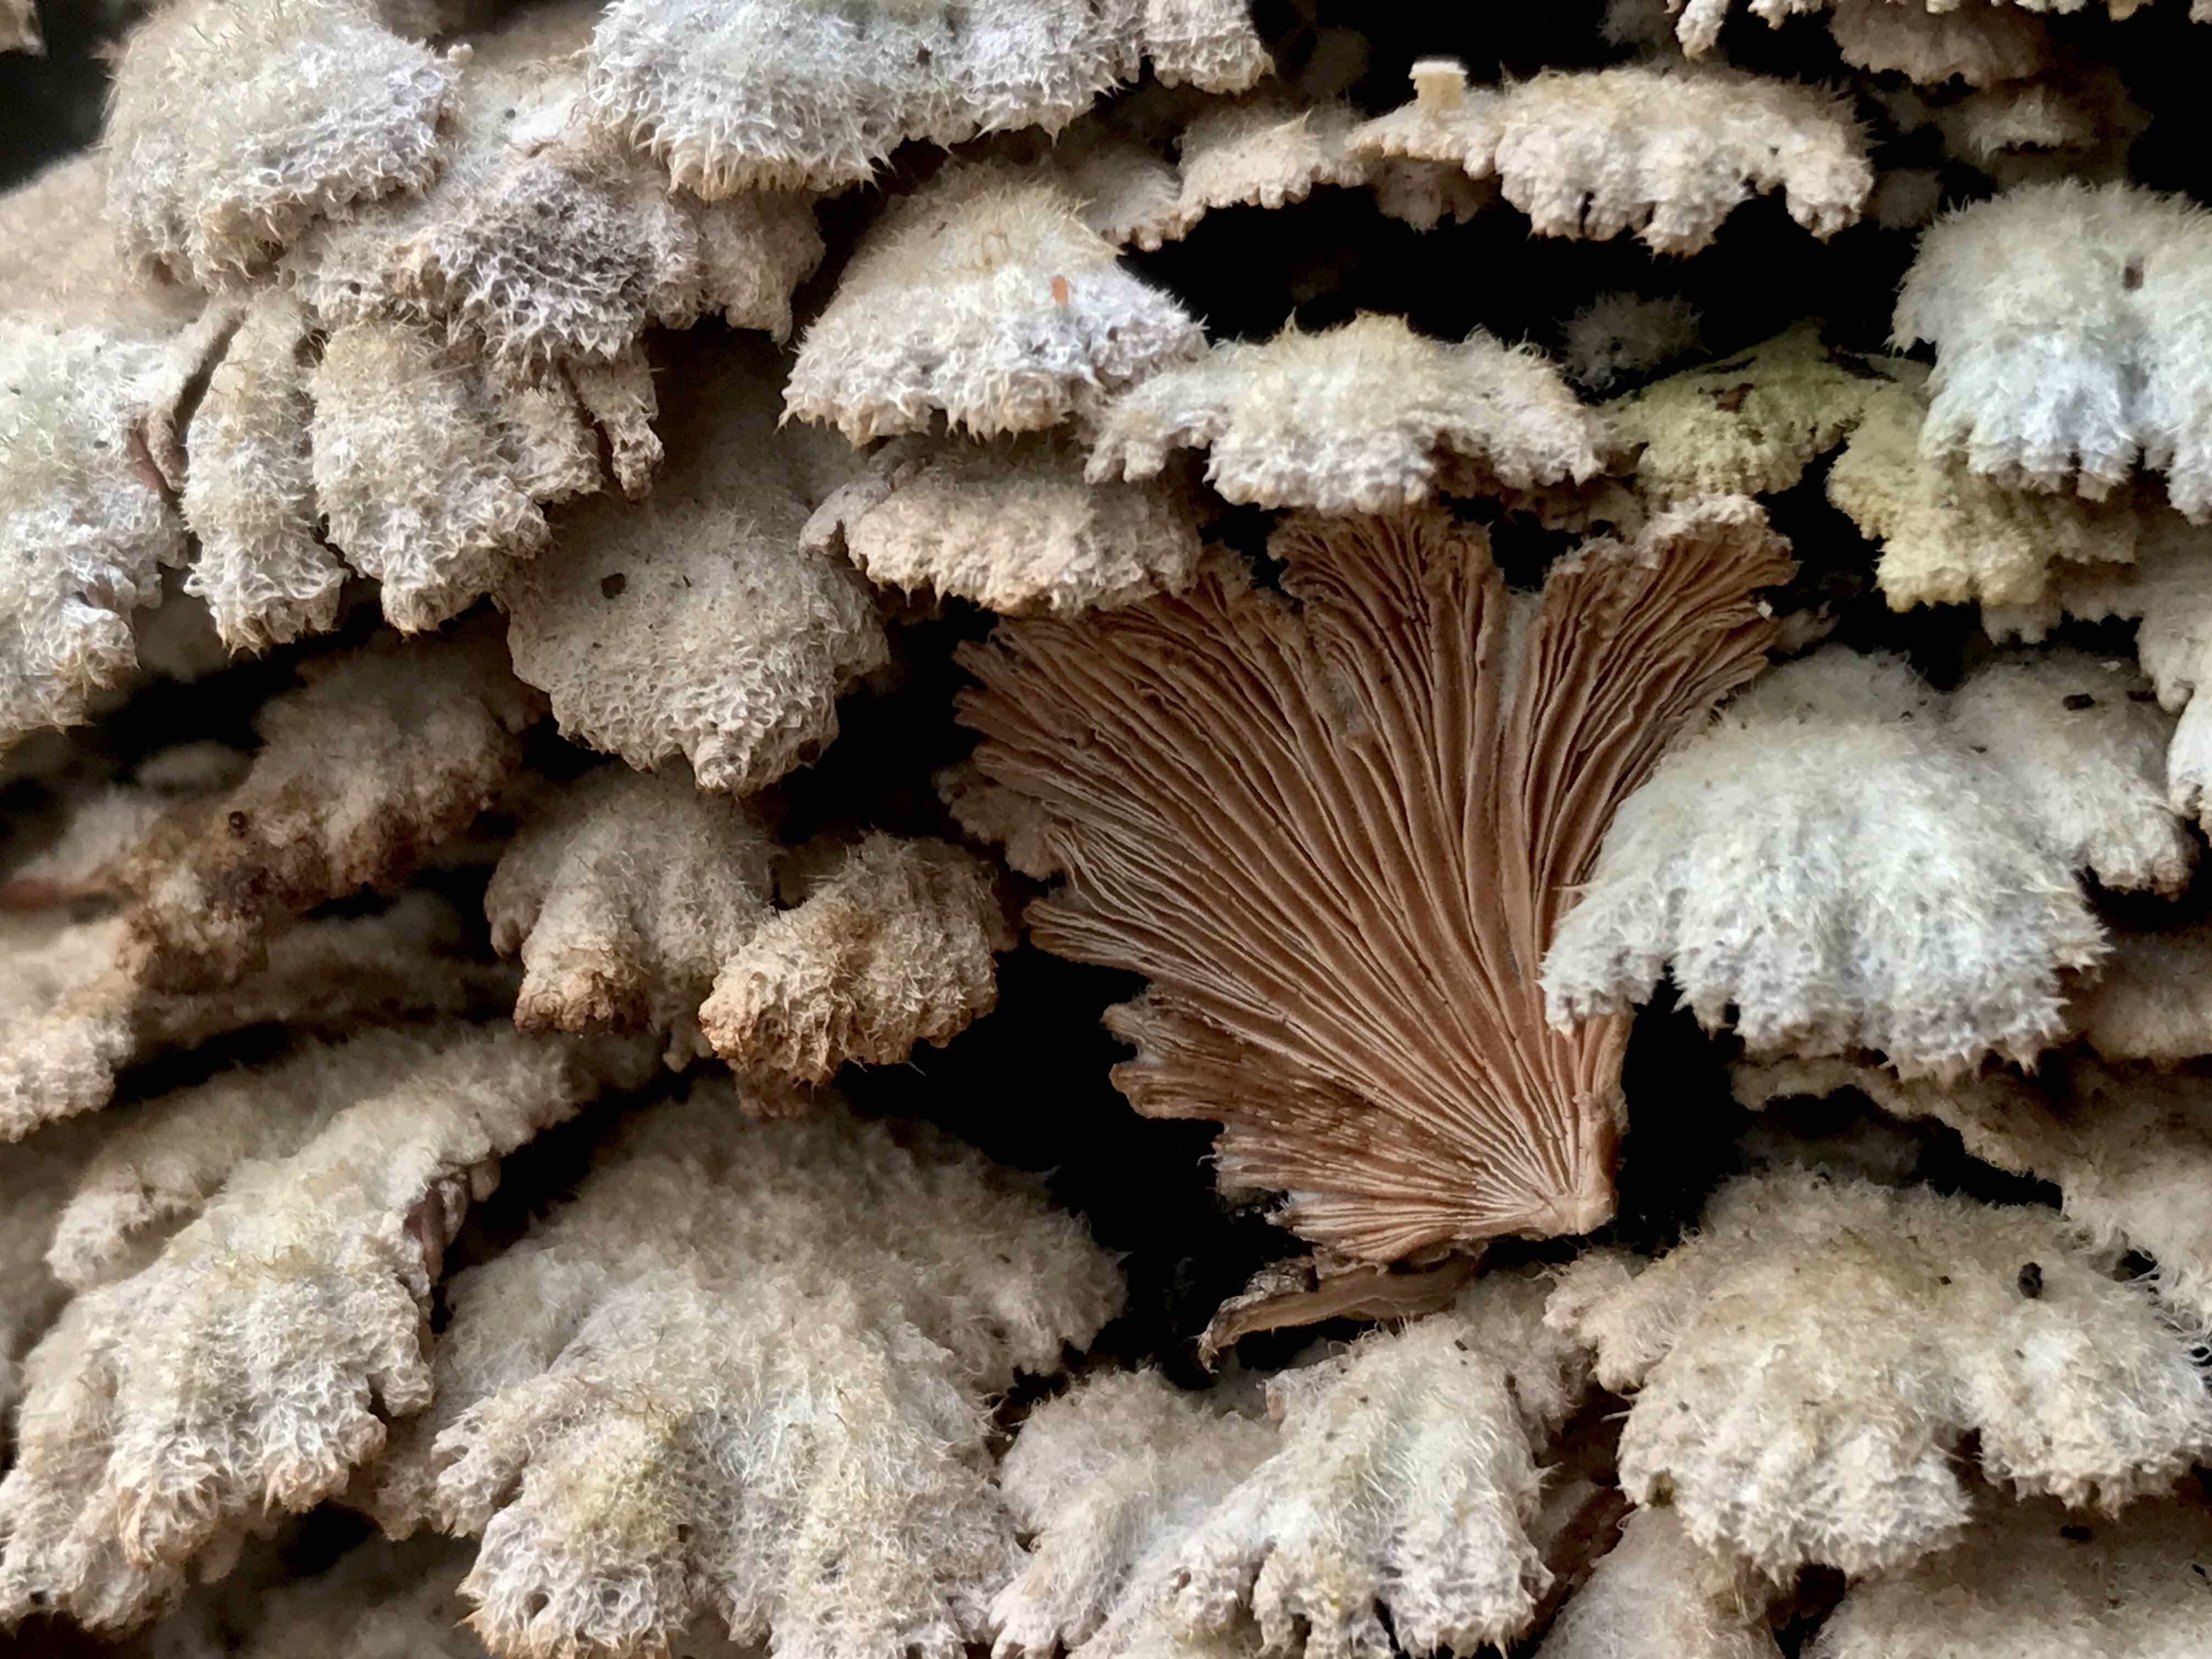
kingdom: Fungi
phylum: Basidiomycota
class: Agaricomycetes
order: Agaricales
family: Schizophyllaceae
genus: Schizophyllum
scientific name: Schizophyllum commune
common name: kløvblad
